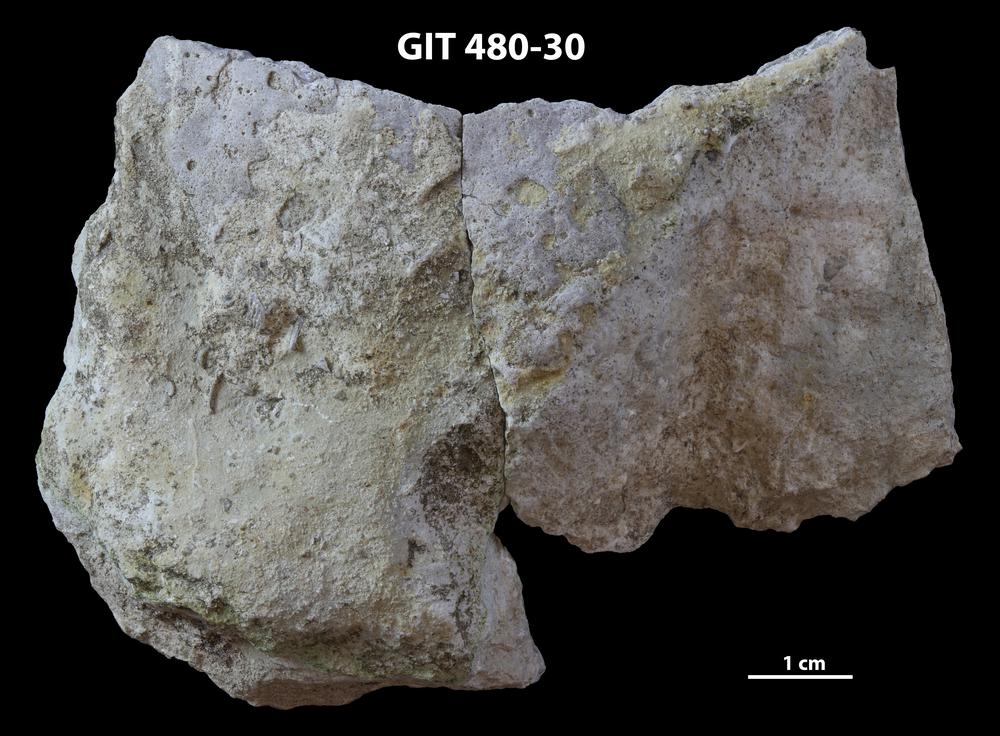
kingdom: Animalia
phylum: Porifera
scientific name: Porifera
